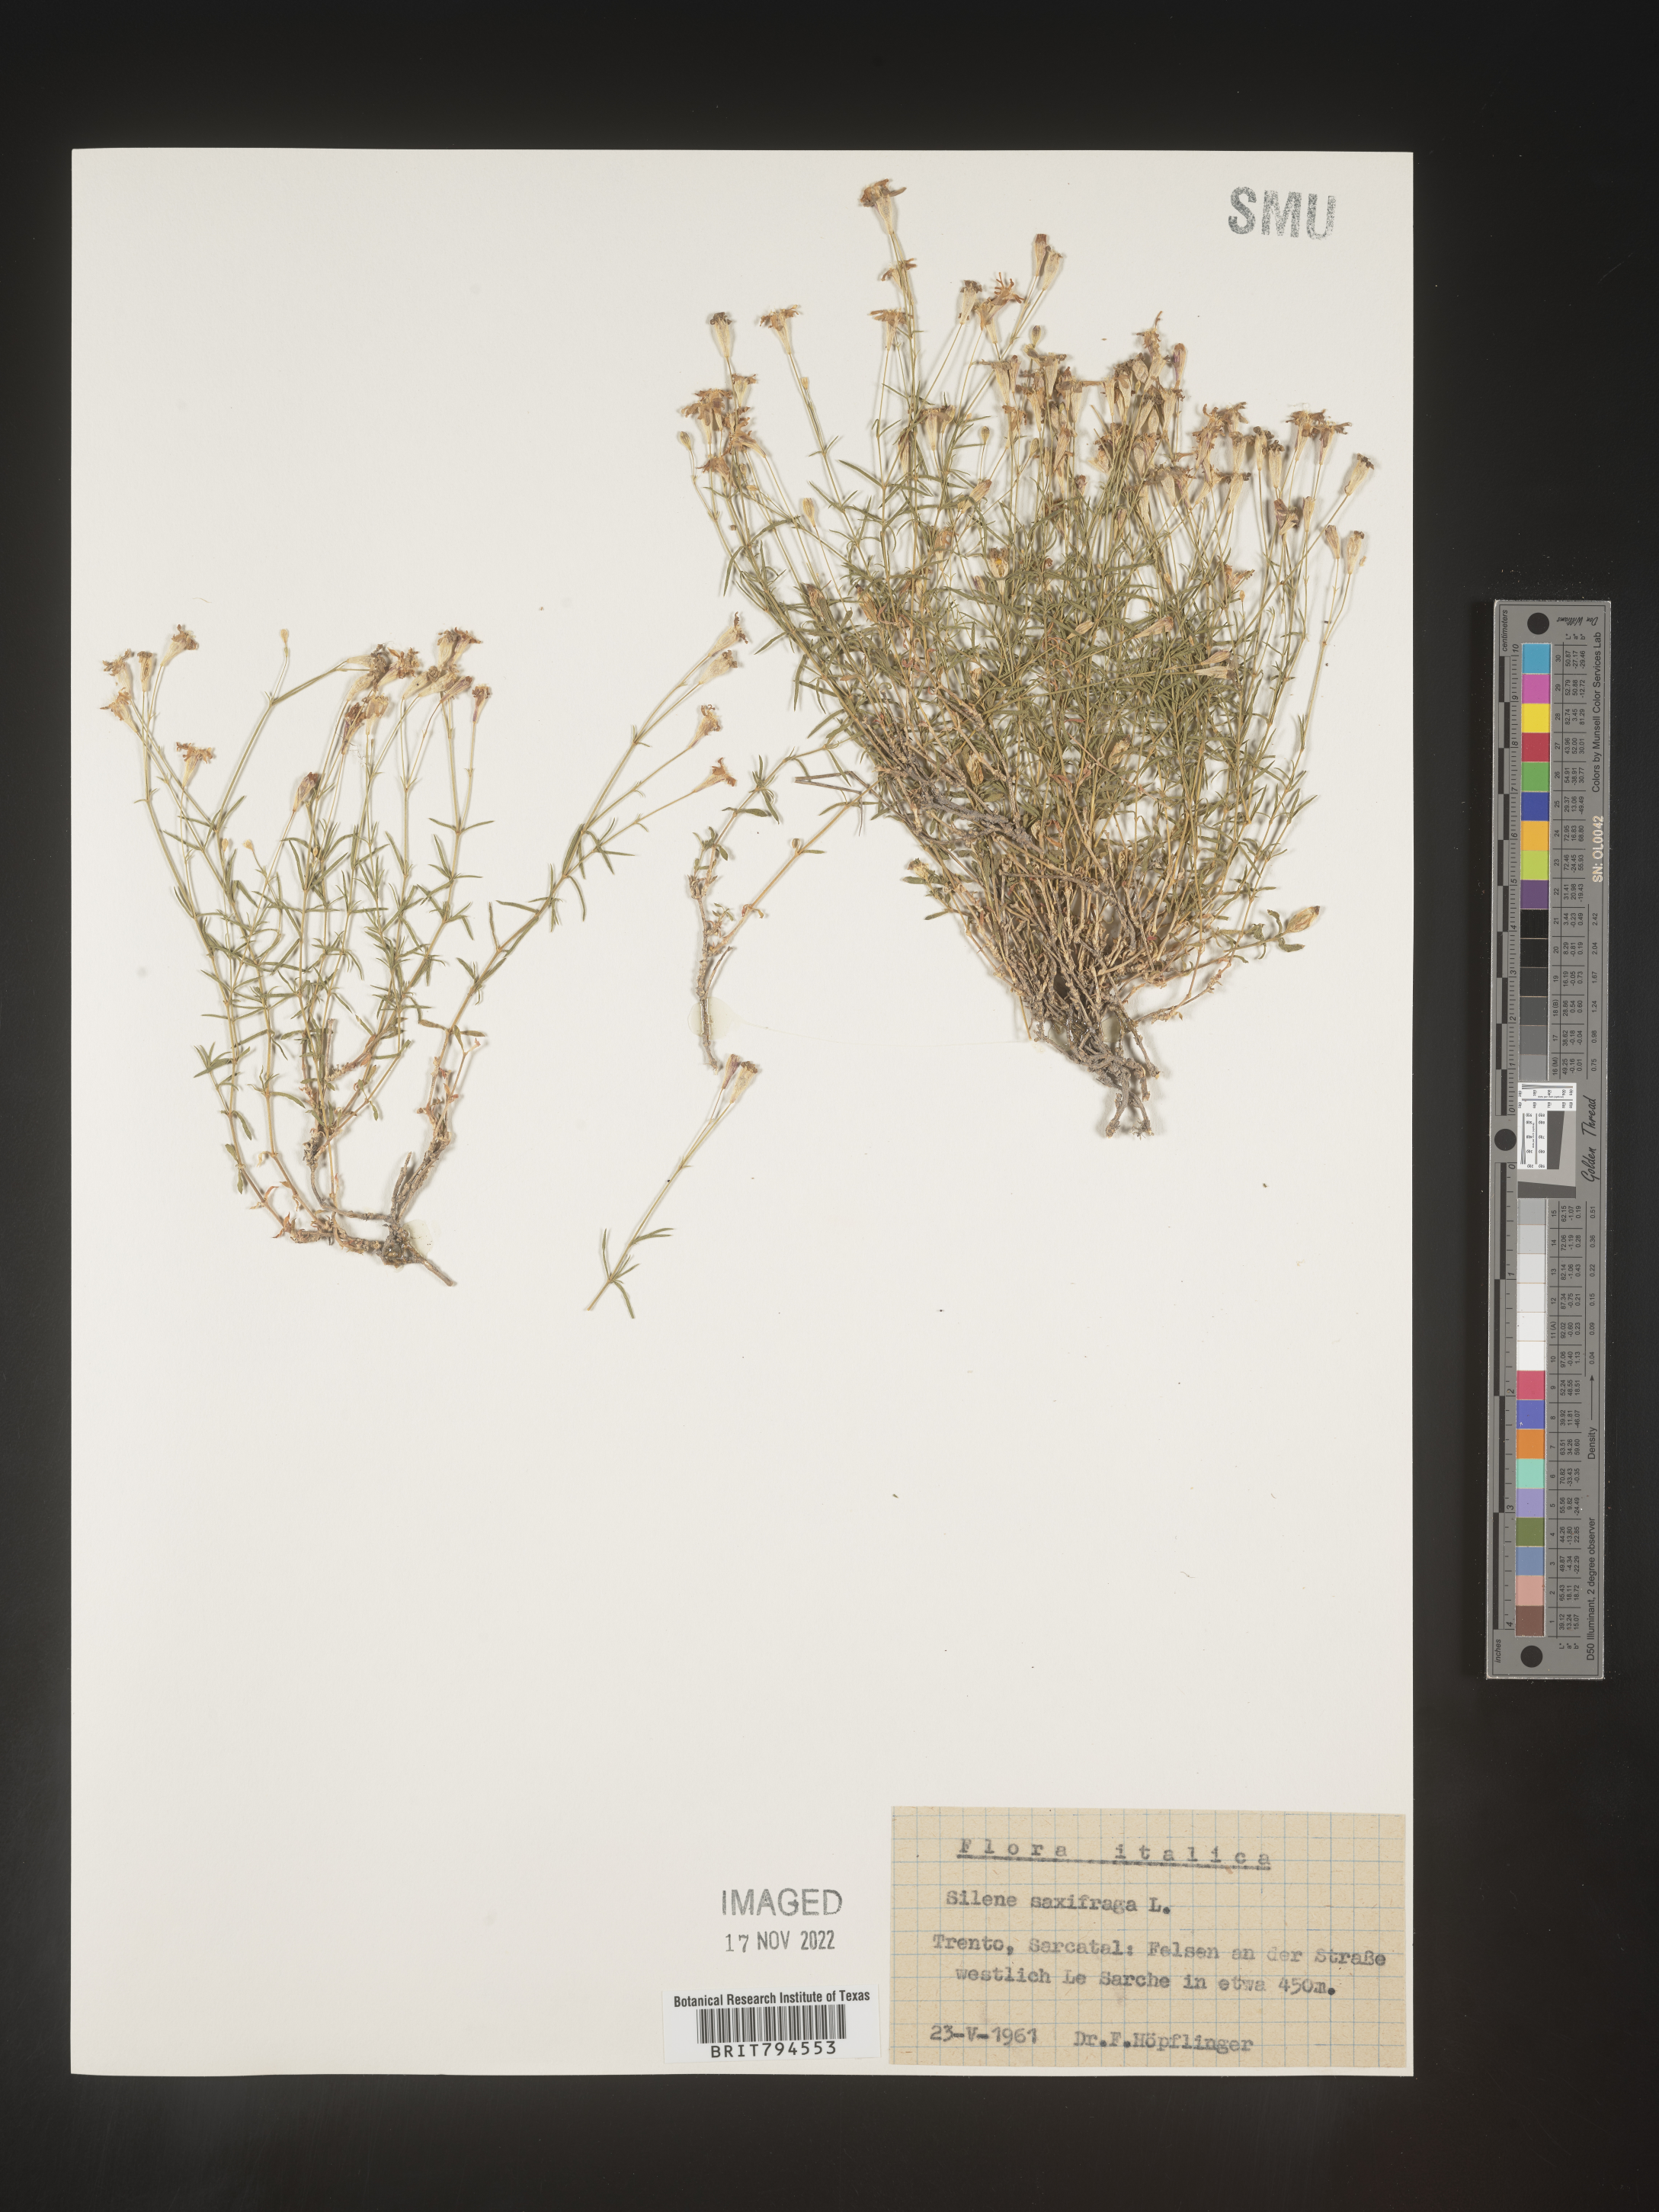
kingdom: Plantae
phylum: Tracheophyta
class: Magnoliopsida
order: Caryophyllales
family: Caryophyllaceae
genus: Silene
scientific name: Silene saxifraga
